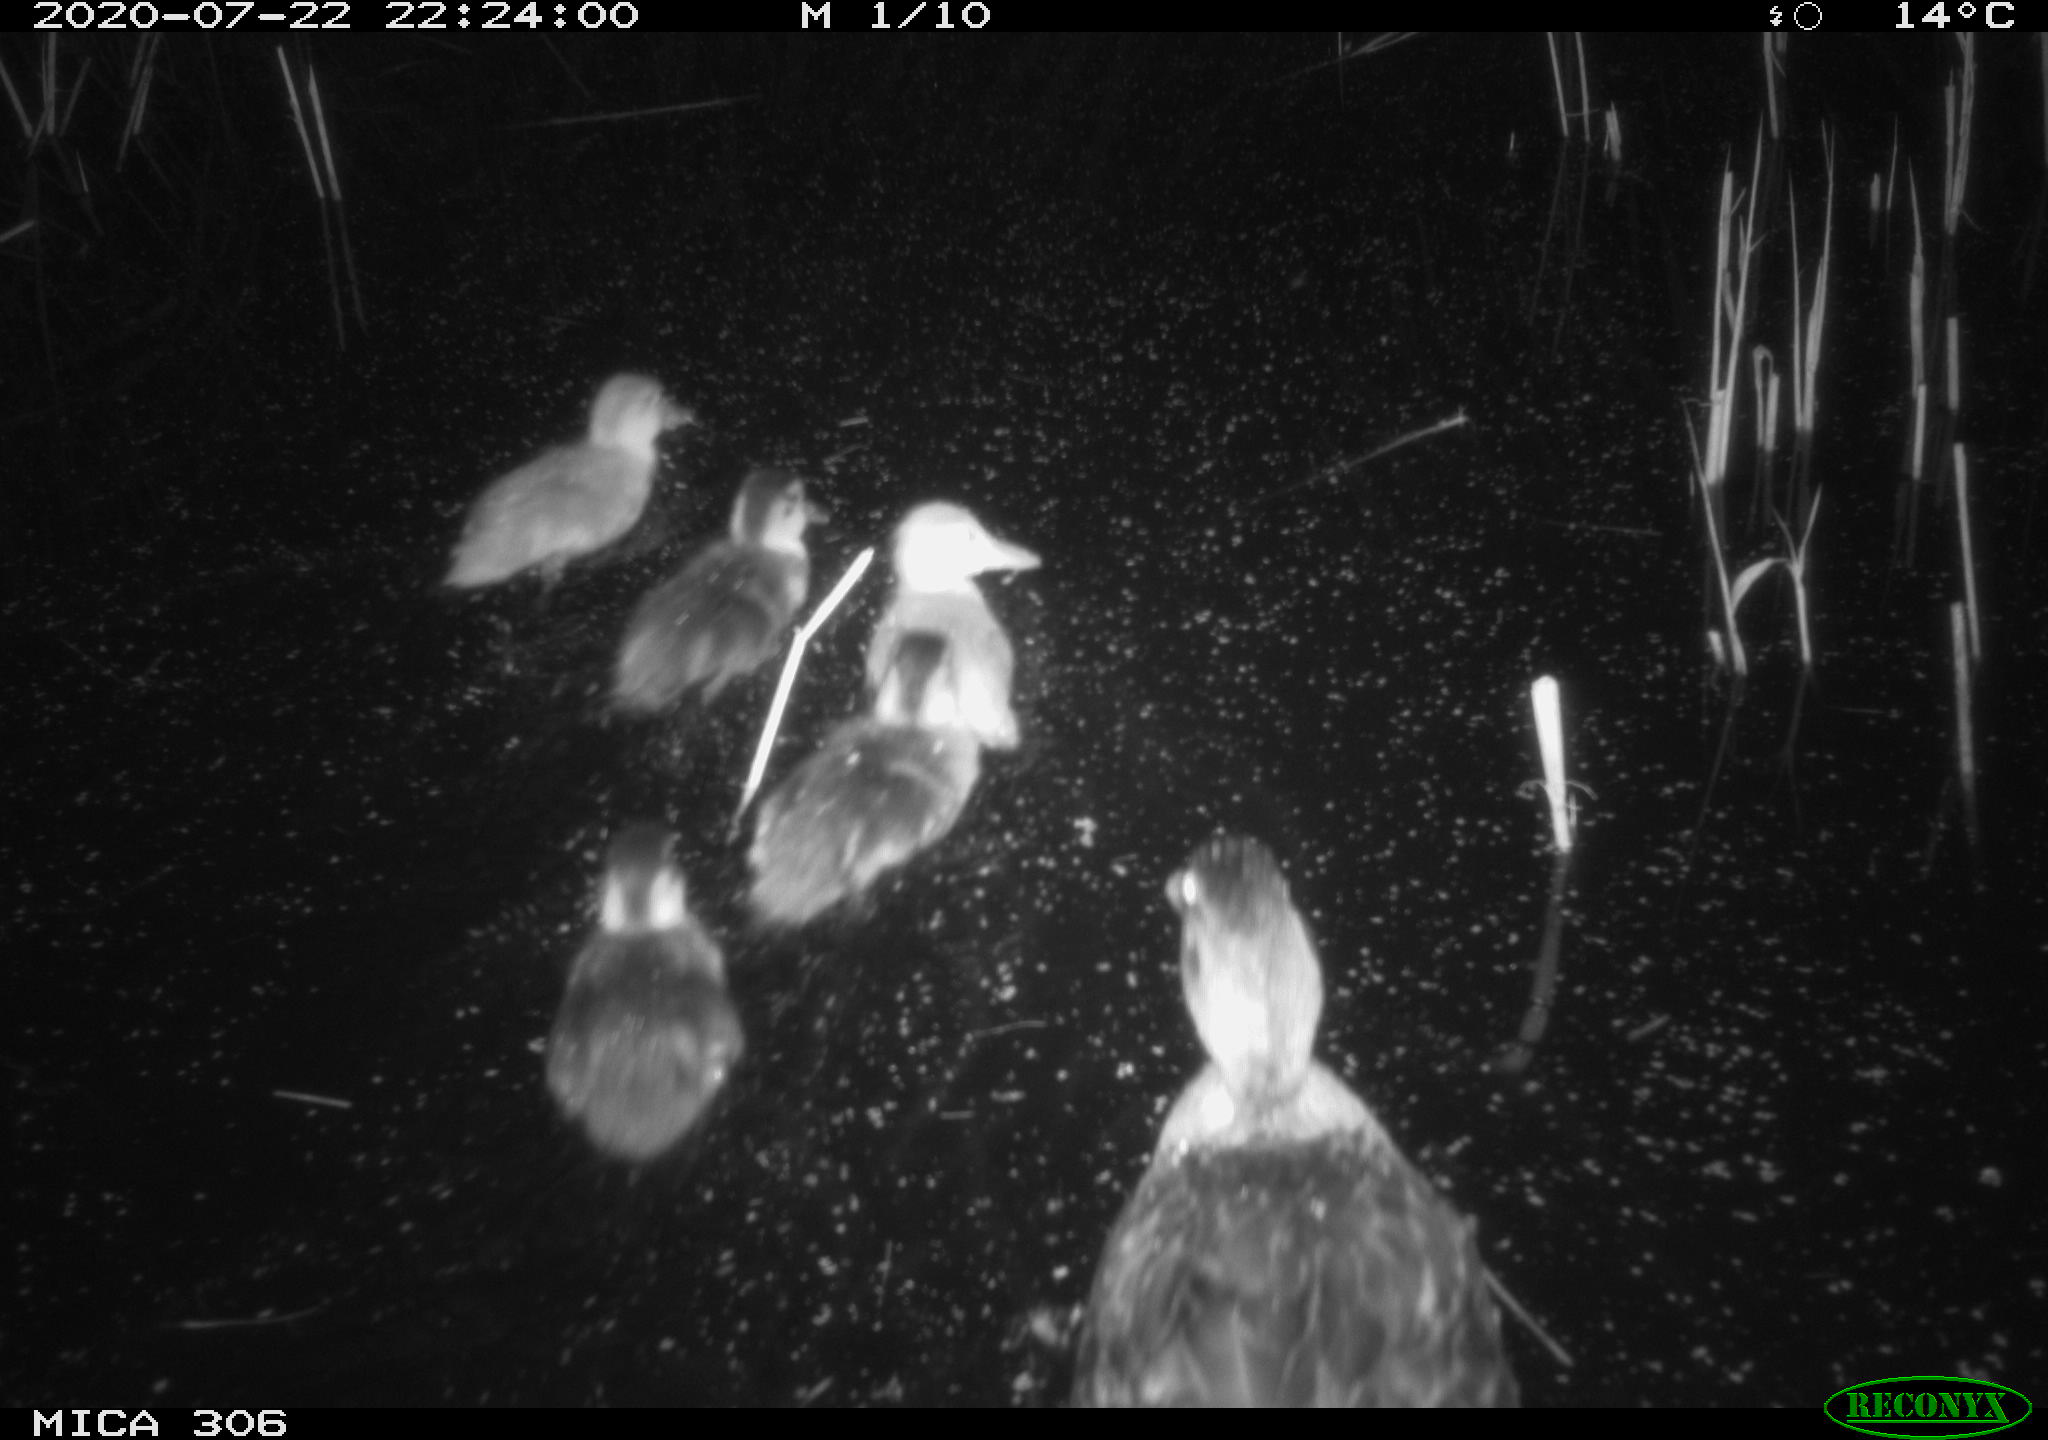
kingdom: Animalia
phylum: Chordata
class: Aves
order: Anseriformes
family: Anatidae
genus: Anas
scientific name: Anas platyrhynchos
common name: Mallard
